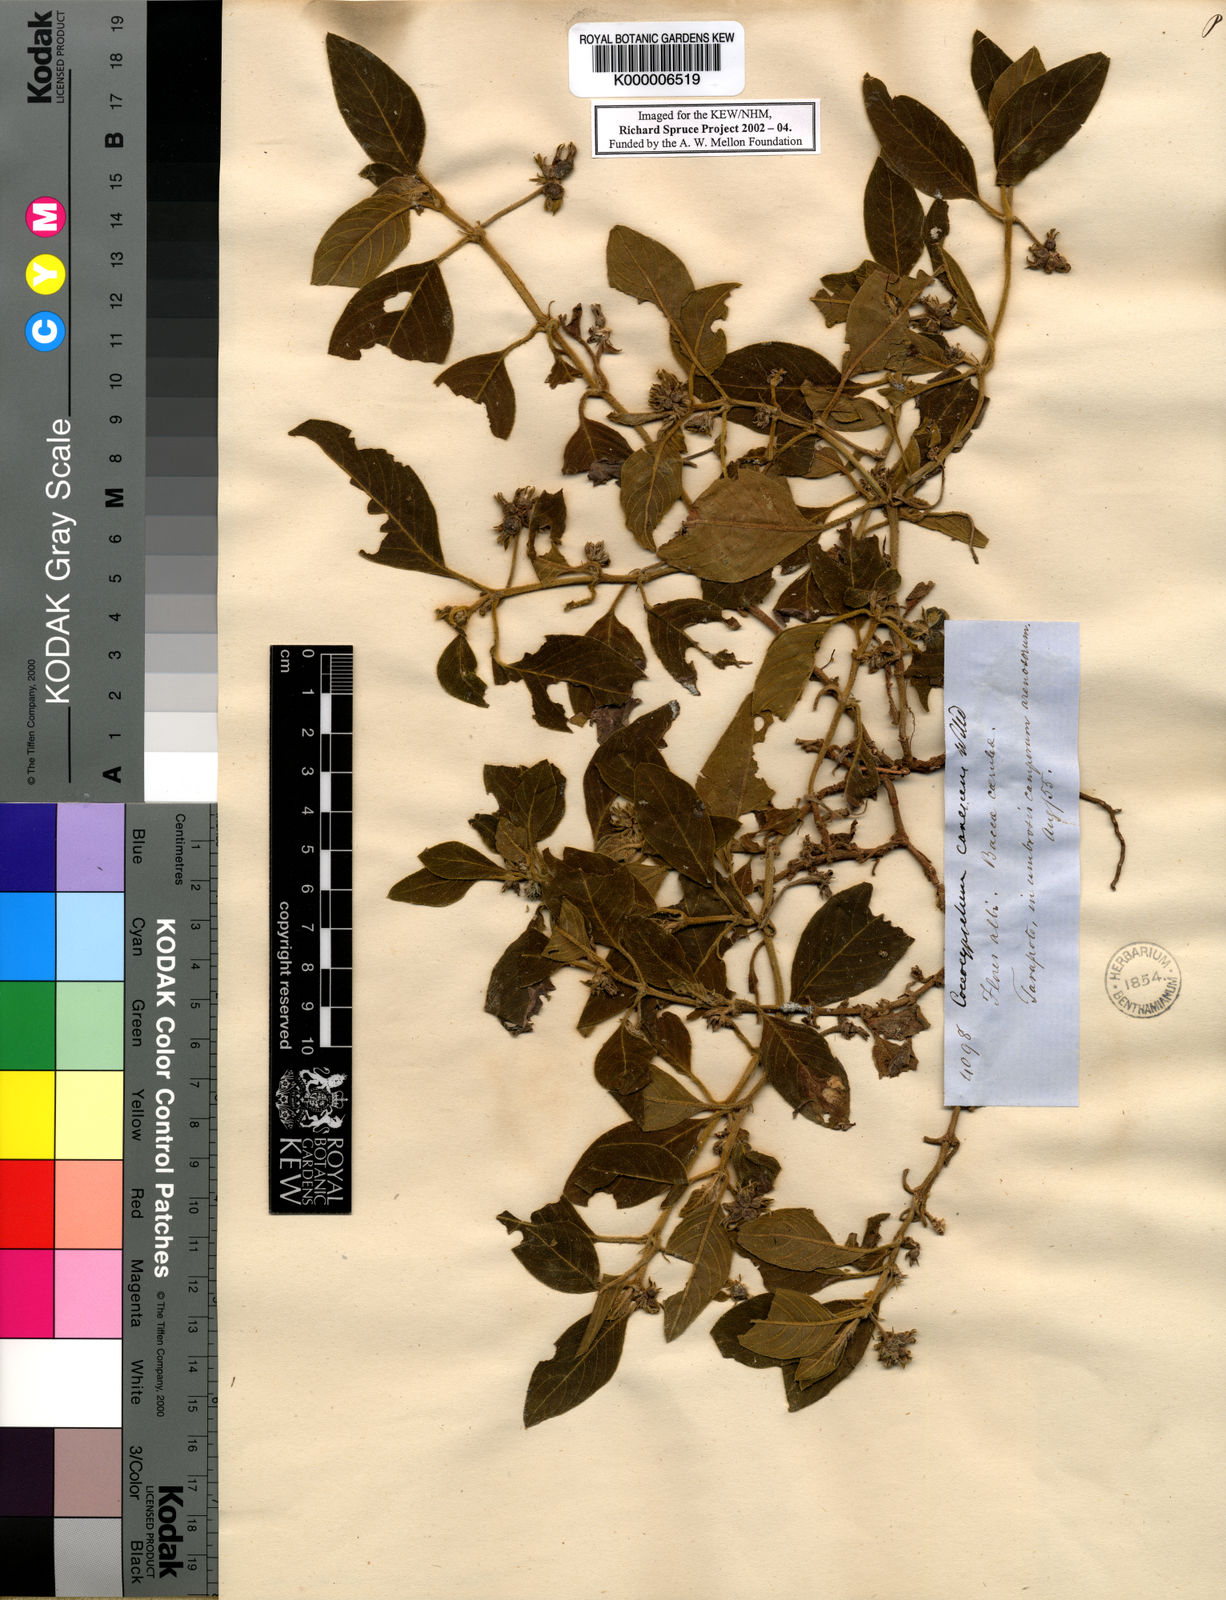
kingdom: Plantae
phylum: Tracheophyta
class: Magnoliopsida
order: Gentianales
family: Rubiaceae
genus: Coccocypselum
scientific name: Coccocypselum lanceolatum
